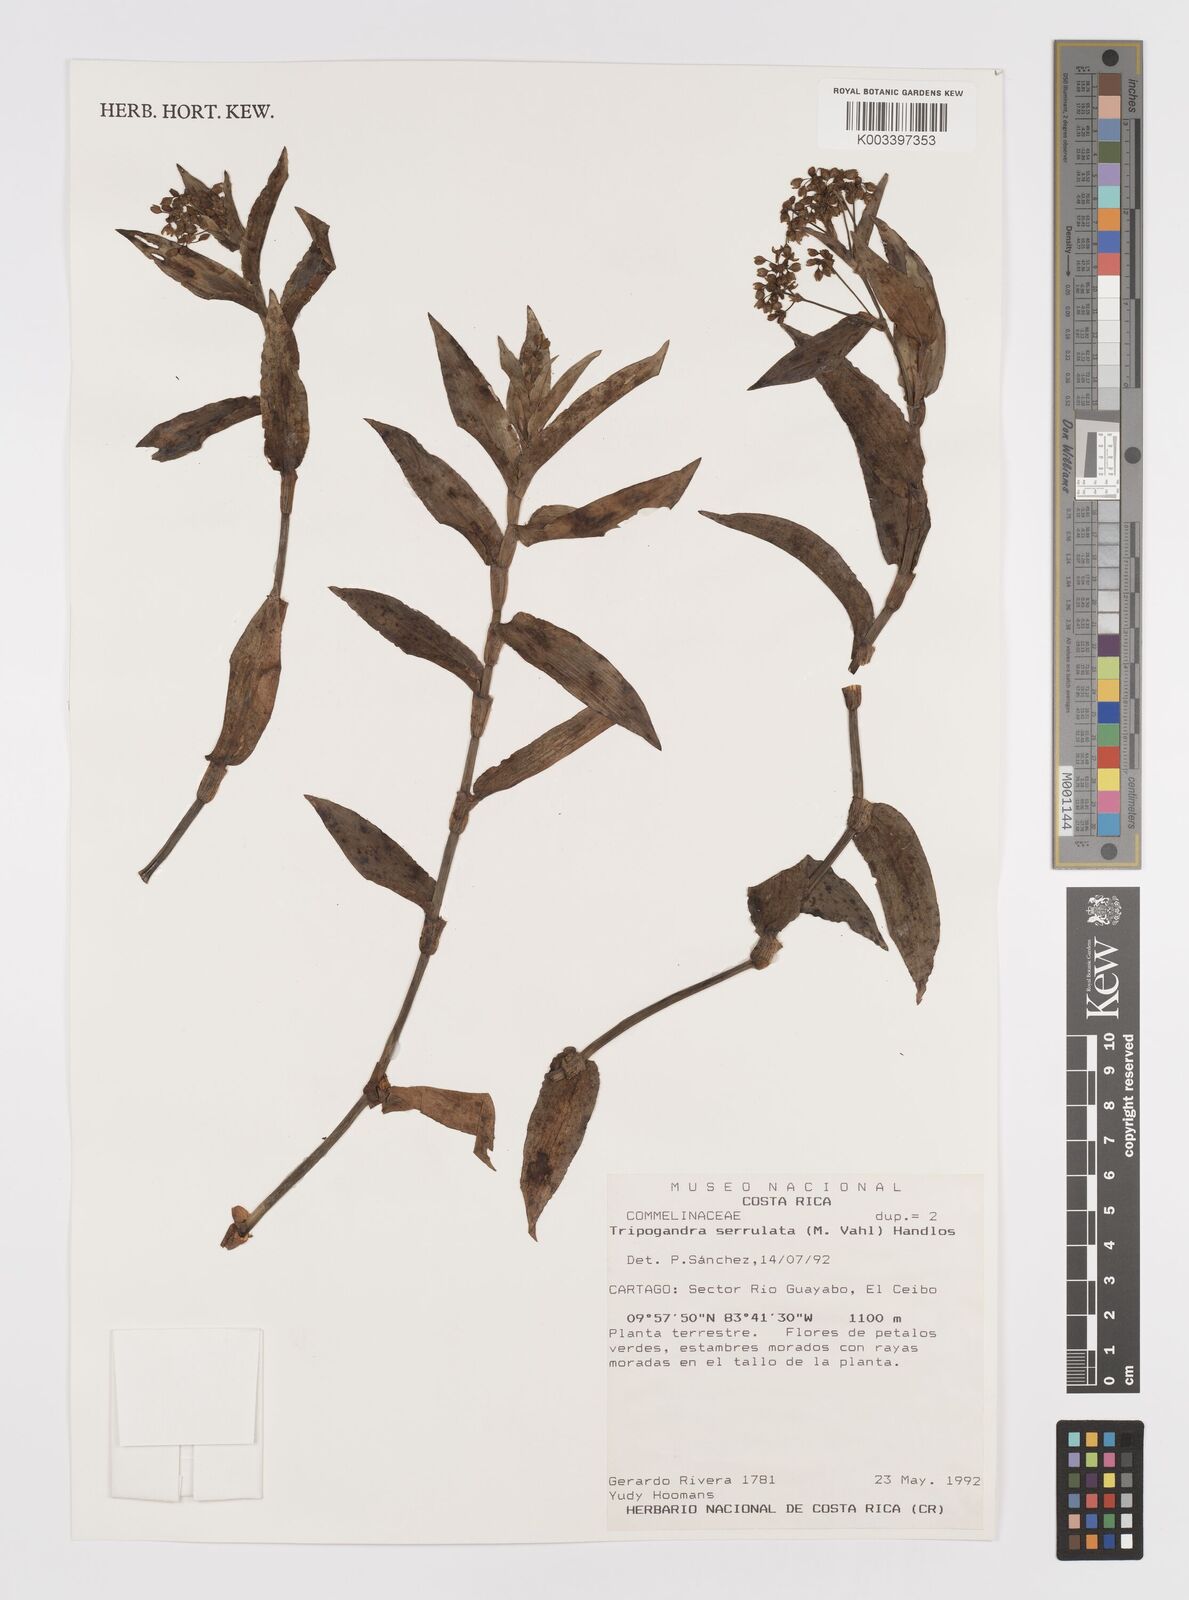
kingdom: Plantae
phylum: Tracheophyta
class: Liliopsida
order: Commelinales
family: Commelinaceae
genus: Callisia
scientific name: Callisia serrulata
